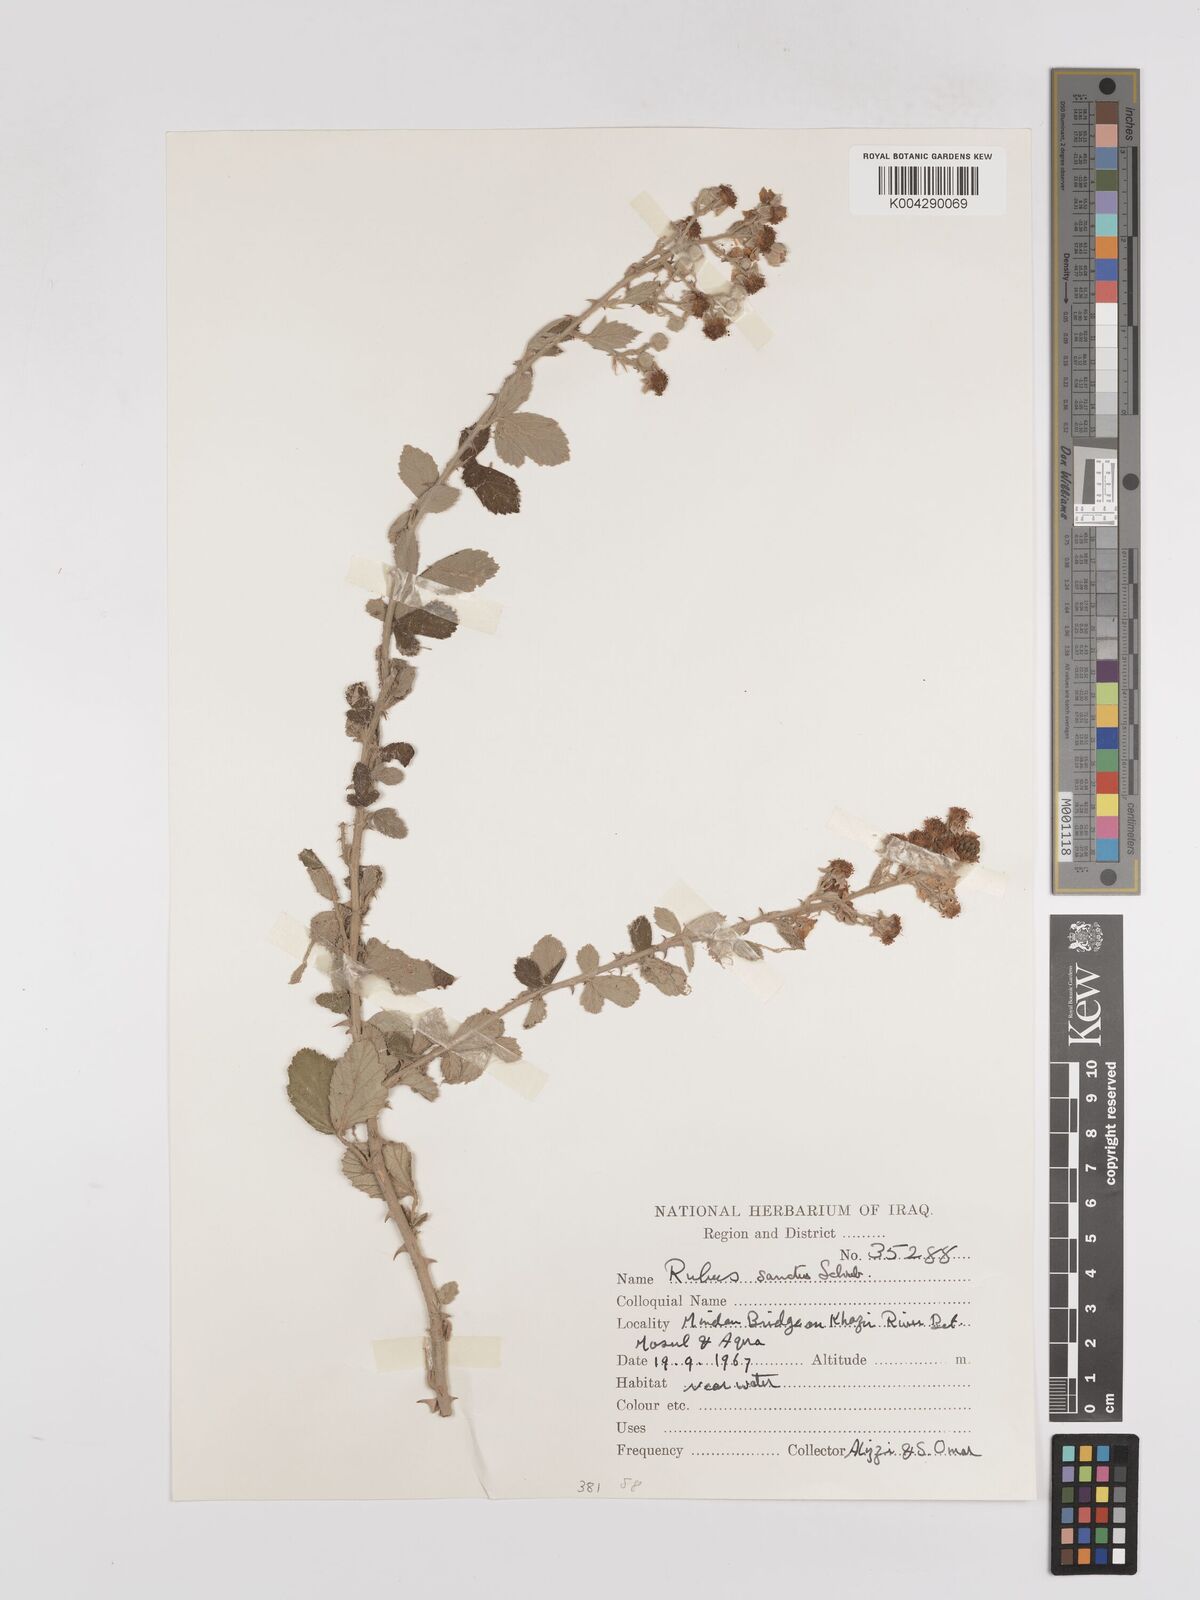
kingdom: Plantae
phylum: Tracheophyta
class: Magnoliopsida
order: Rosales
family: Rosaceae
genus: Rubus
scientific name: Rubus sanctus
